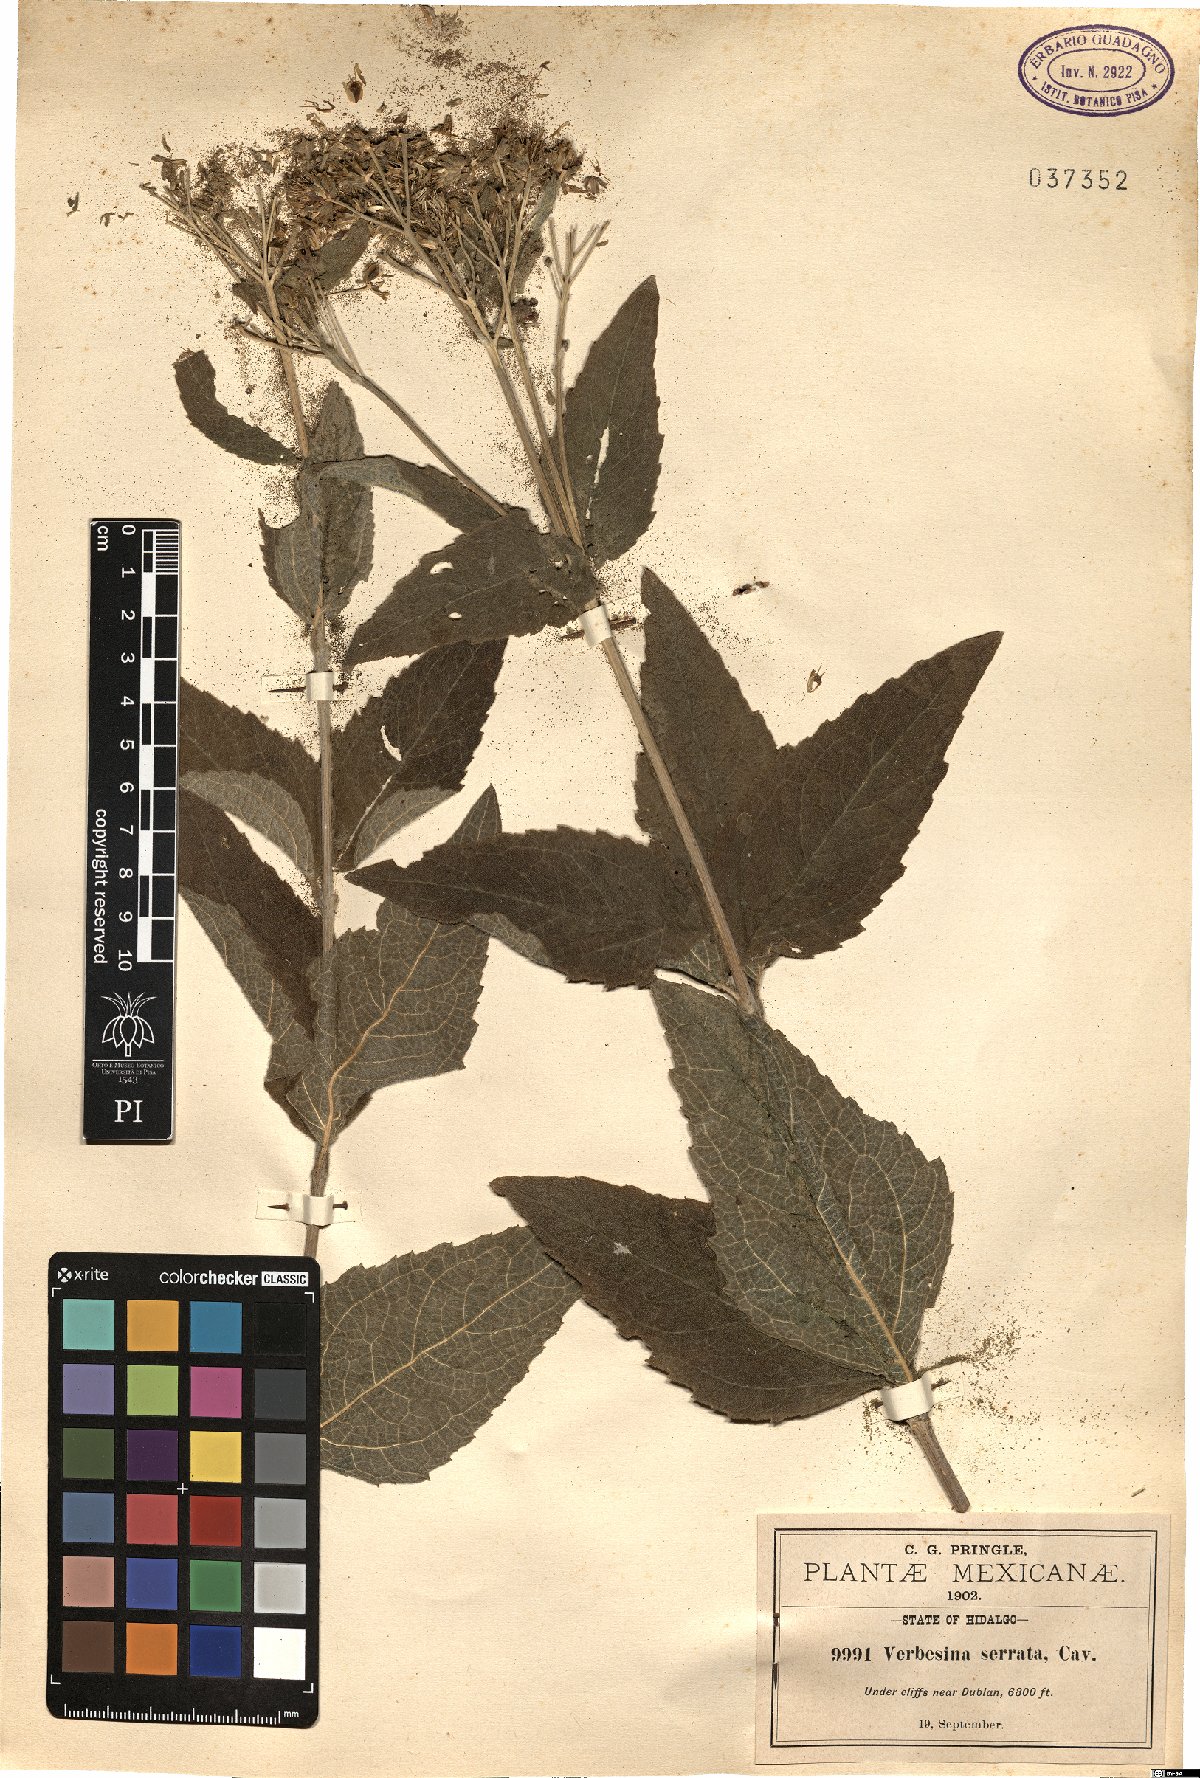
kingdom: Plantae
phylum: Tracheophyta
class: Magnoliopsida
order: Asterales
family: Asteraceae
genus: Verbesina
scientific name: Verbesina serrata
